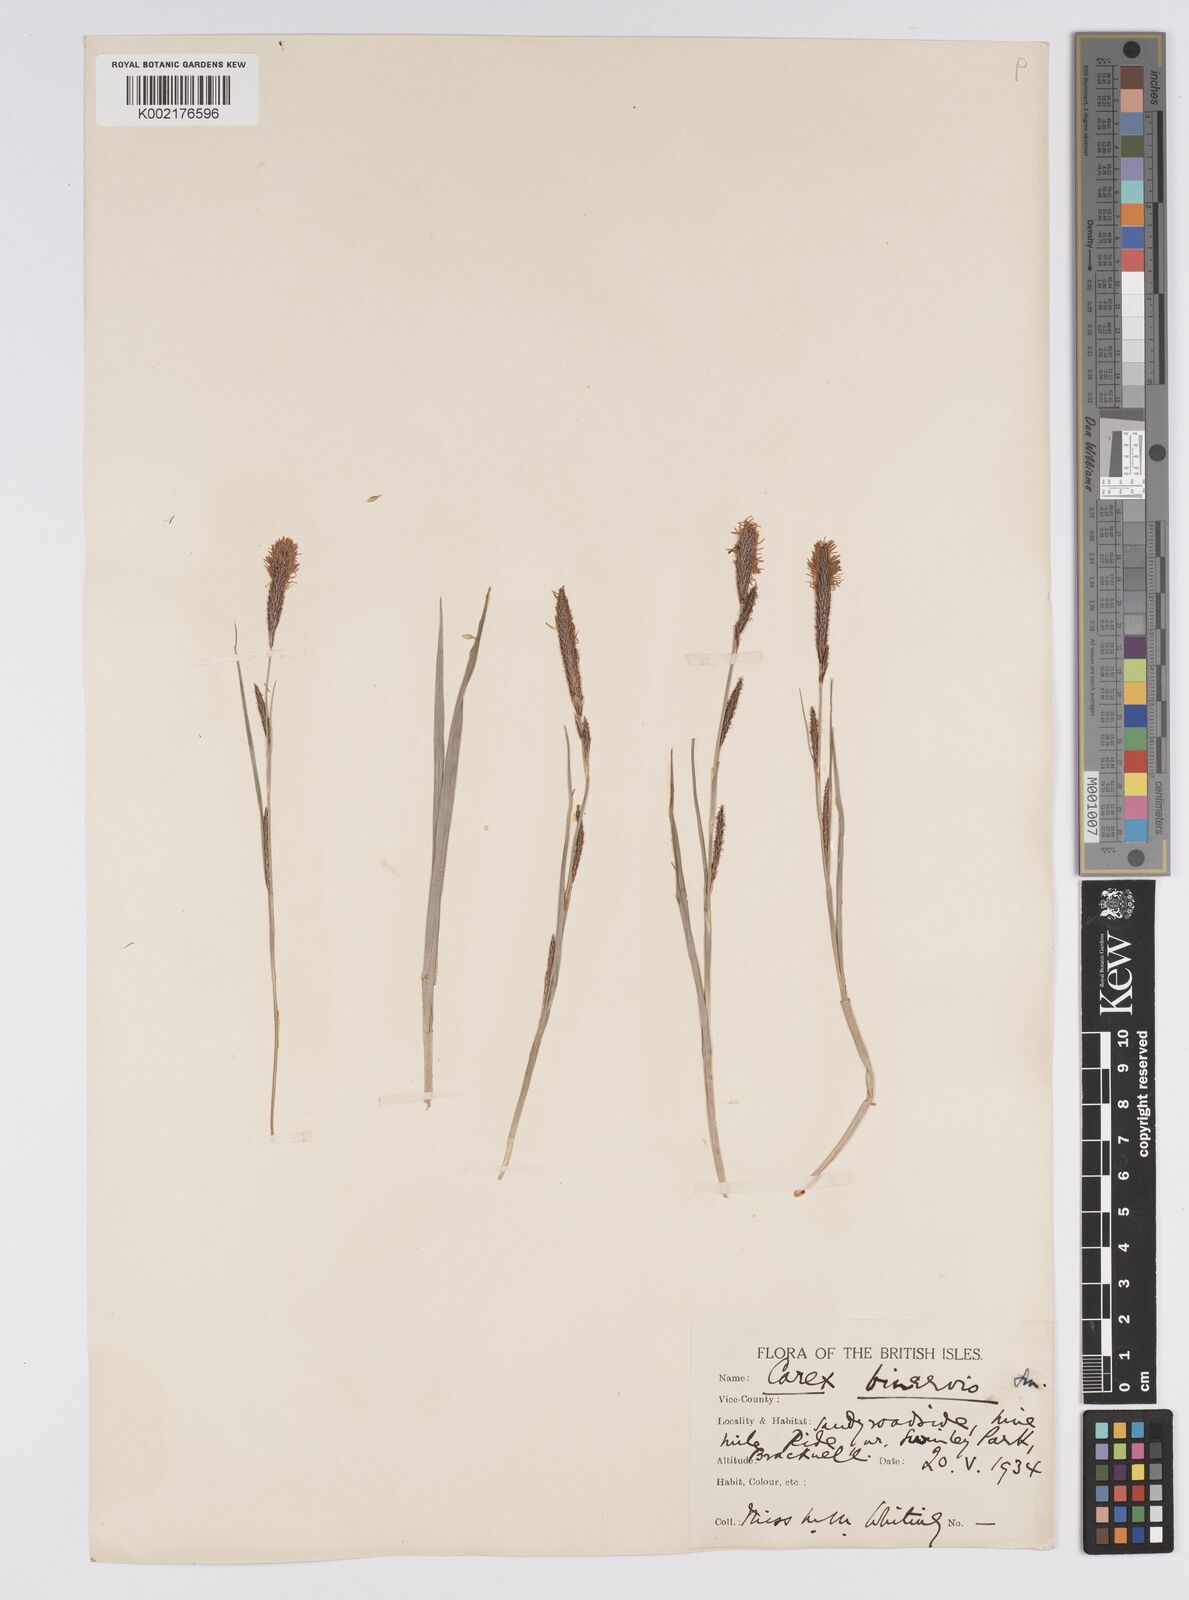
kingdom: Plantae
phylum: Tracheophyta
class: Liliopsida
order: Poales
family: Cyperaceae
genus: Carex
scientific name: Carex binervis
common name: Green-ribbed sedge
